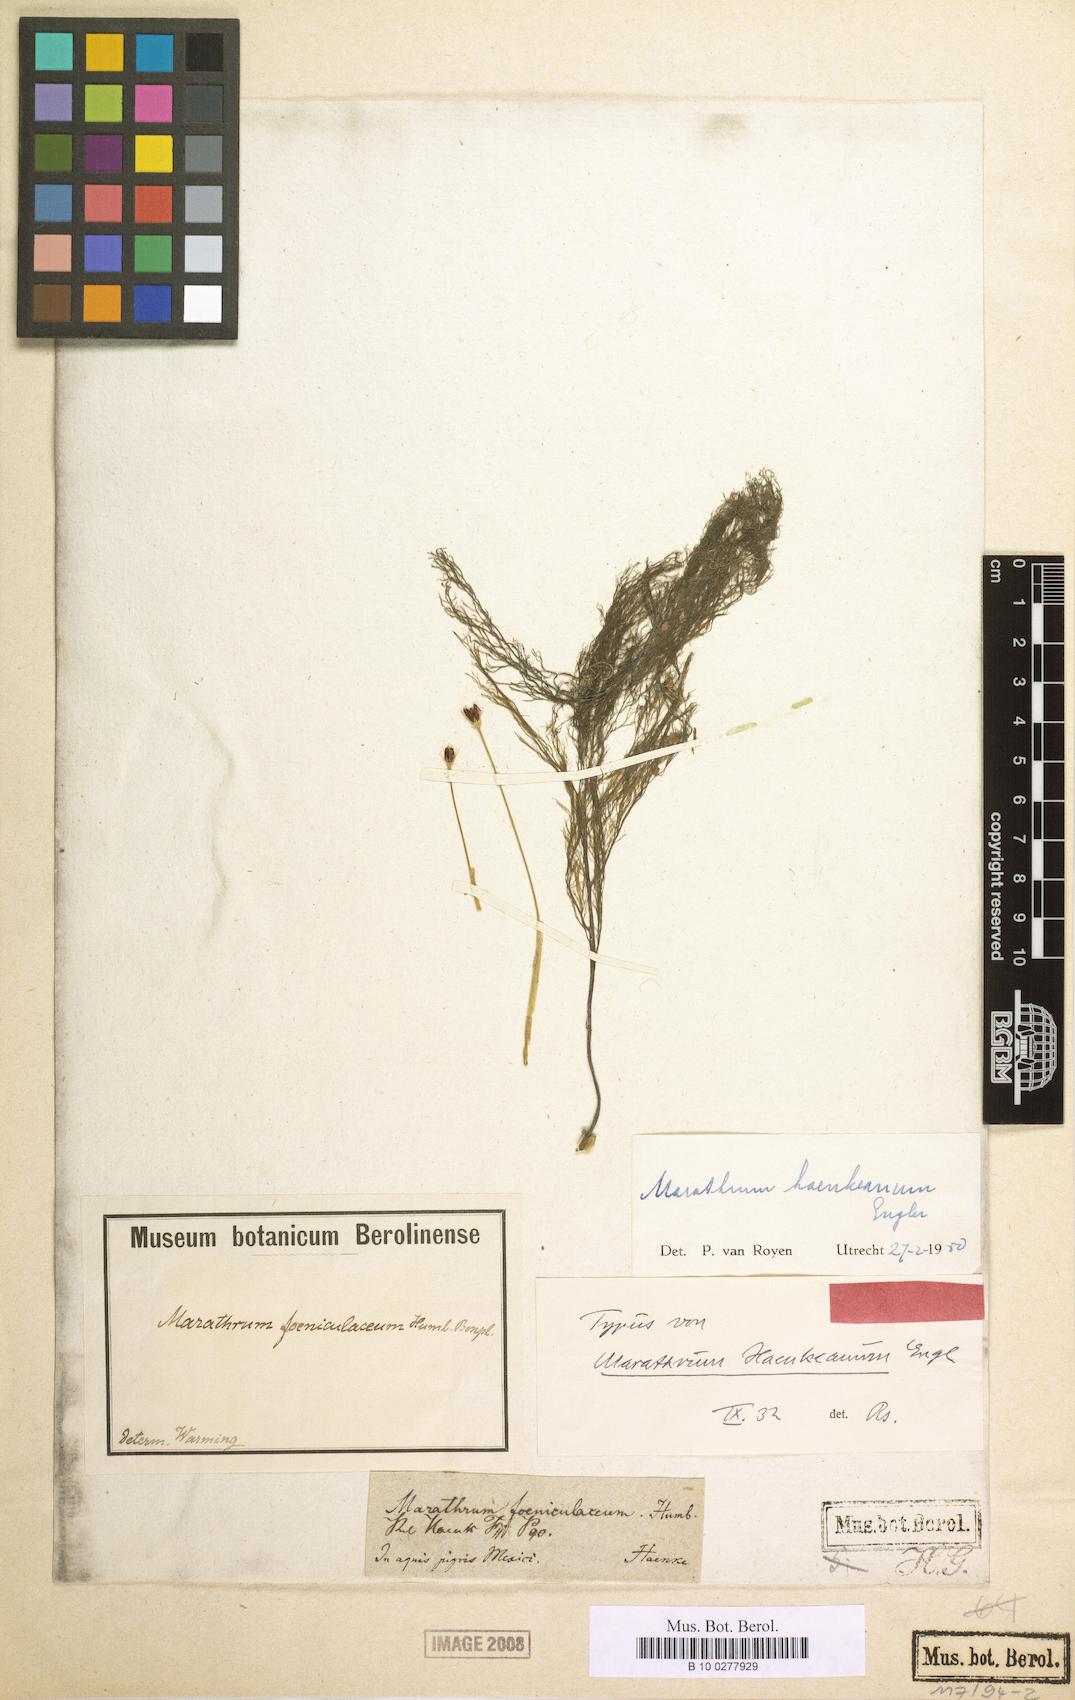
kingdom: Plantae
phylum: Tracheophyta
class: Magnoliopsida
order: Malpighiales
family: Podostemaceae
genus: Marathrum
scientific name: Marathrum foeniculaceum
